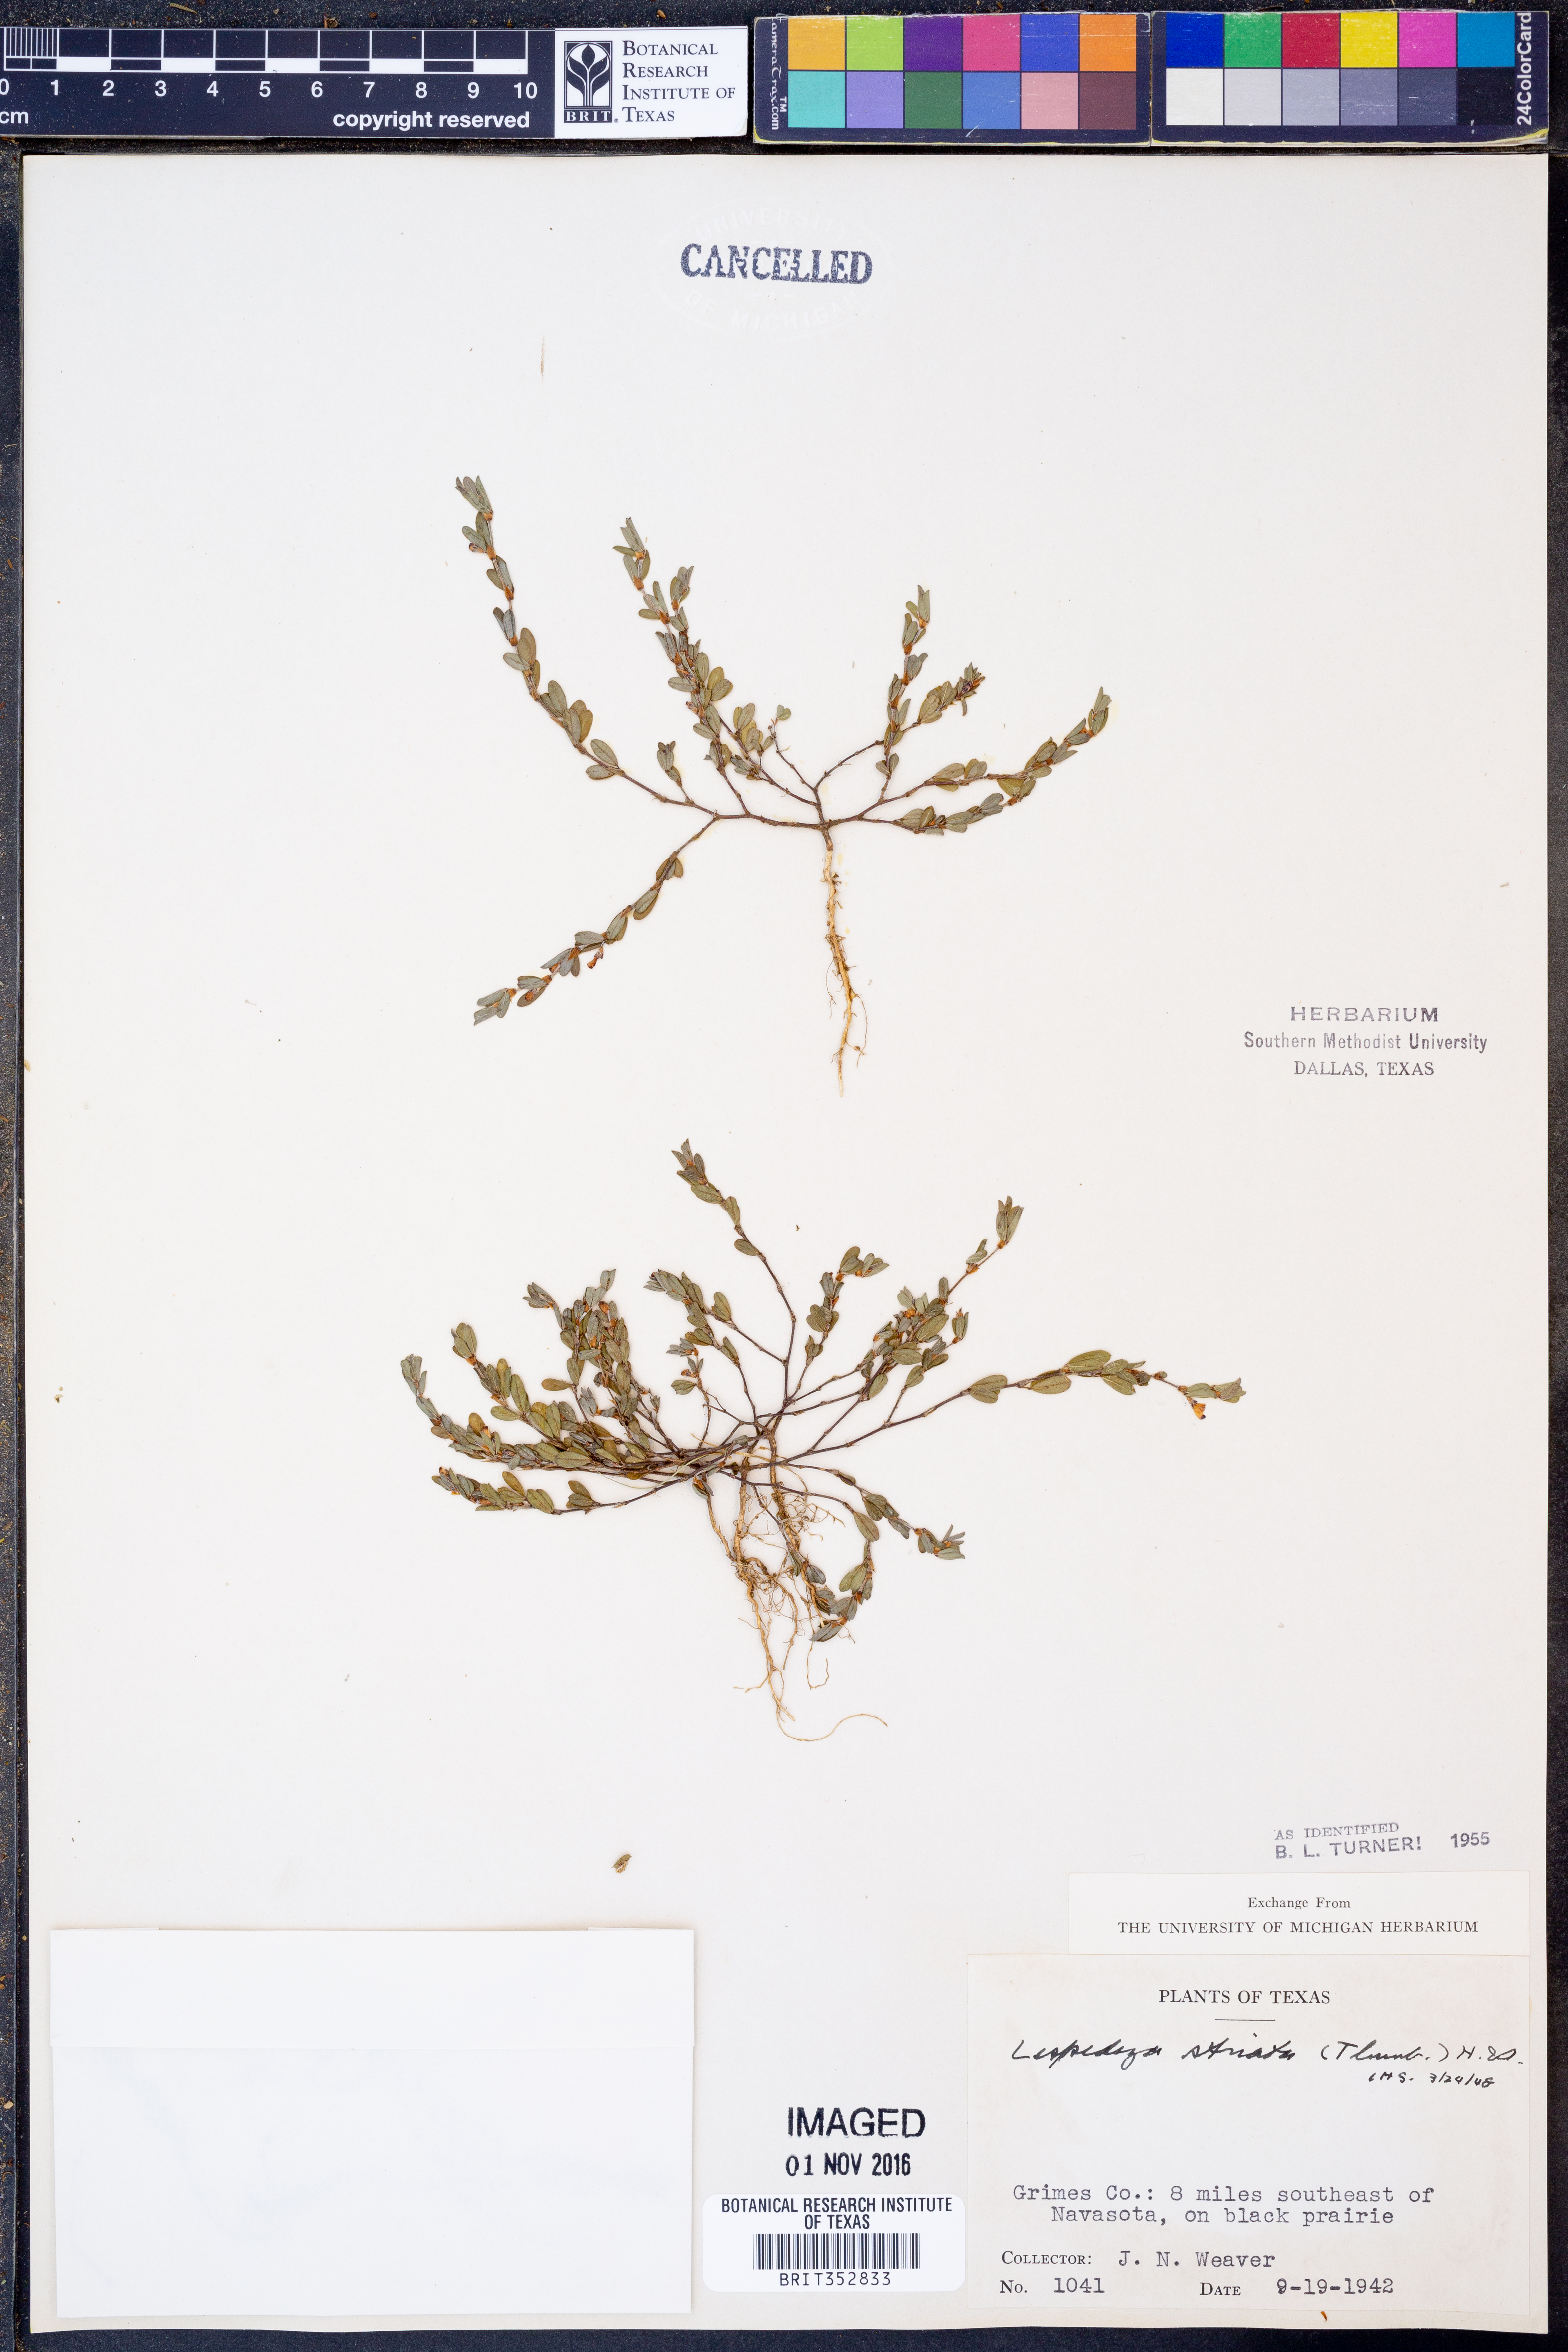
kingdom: Plantae
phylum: Tracheophyta
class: Magnoliopsida
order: Fabales
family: Fabaceae
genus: Kummerowia
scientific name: Kummerowia striata
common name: Japanese clover
